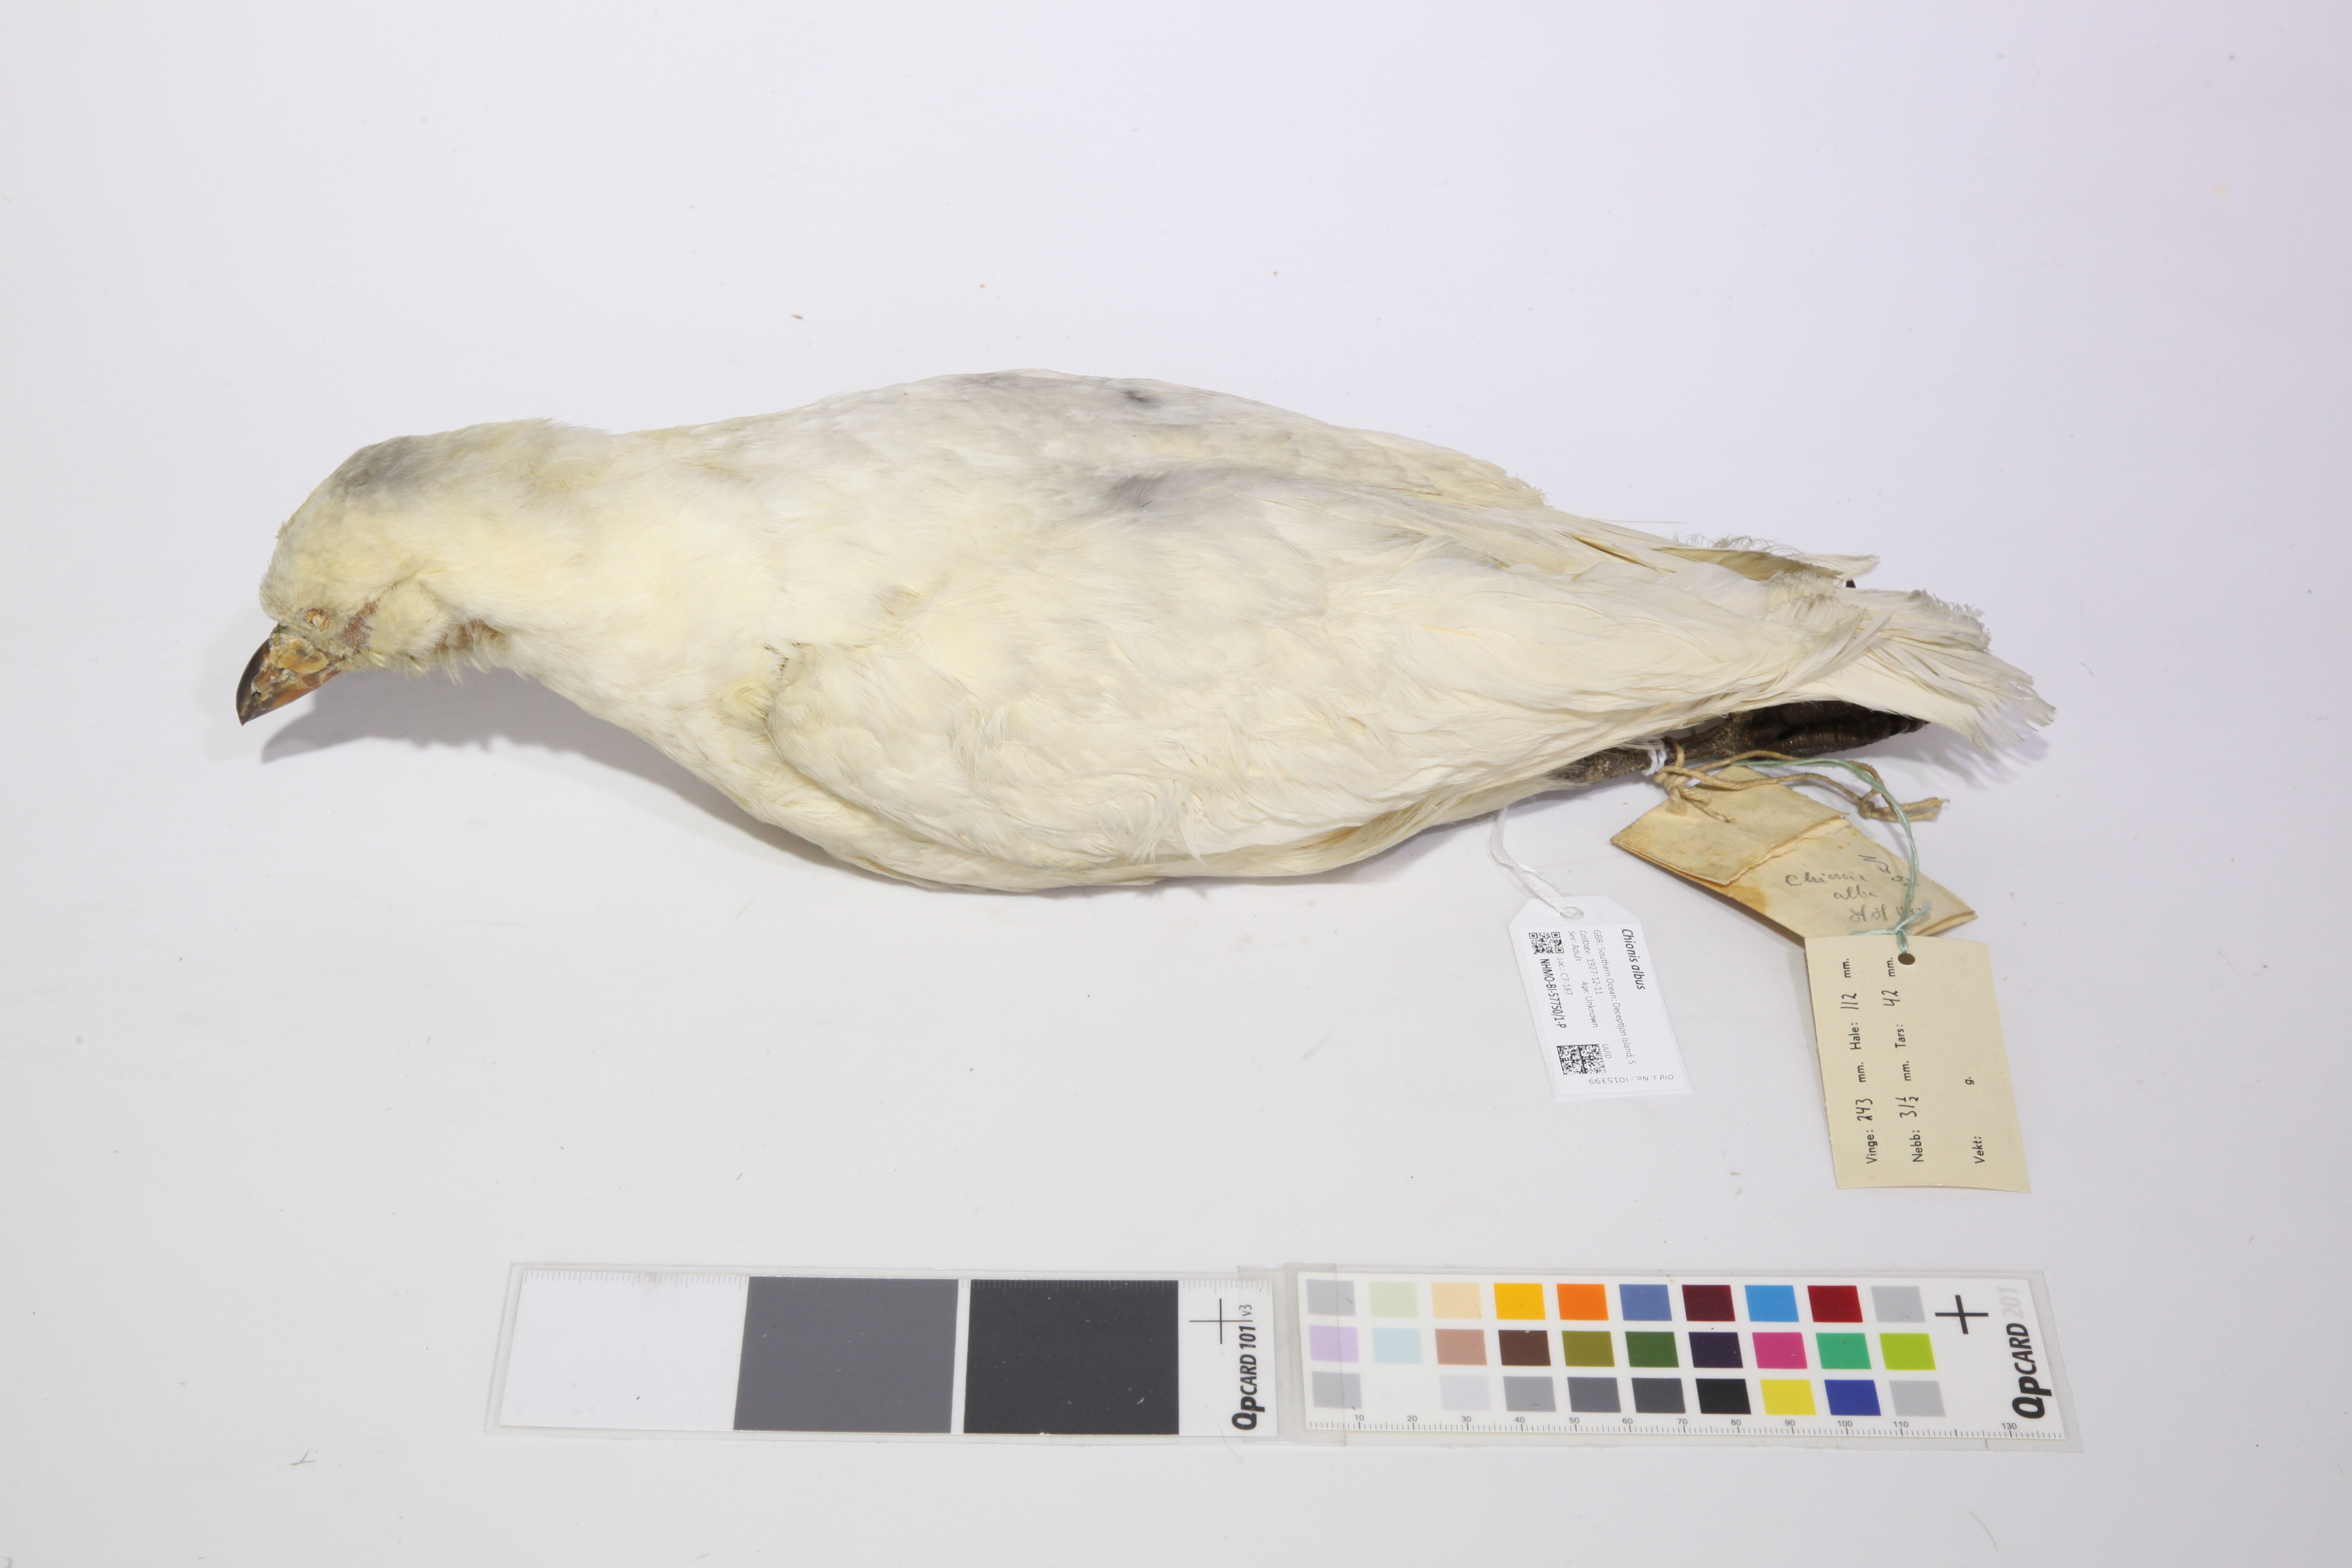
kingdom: Animalia
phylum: Chordata
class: Aves
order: Charadriiformes
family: Chionidae
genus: Chionis
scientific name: Chionis albus
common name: Snowy sheathbill
